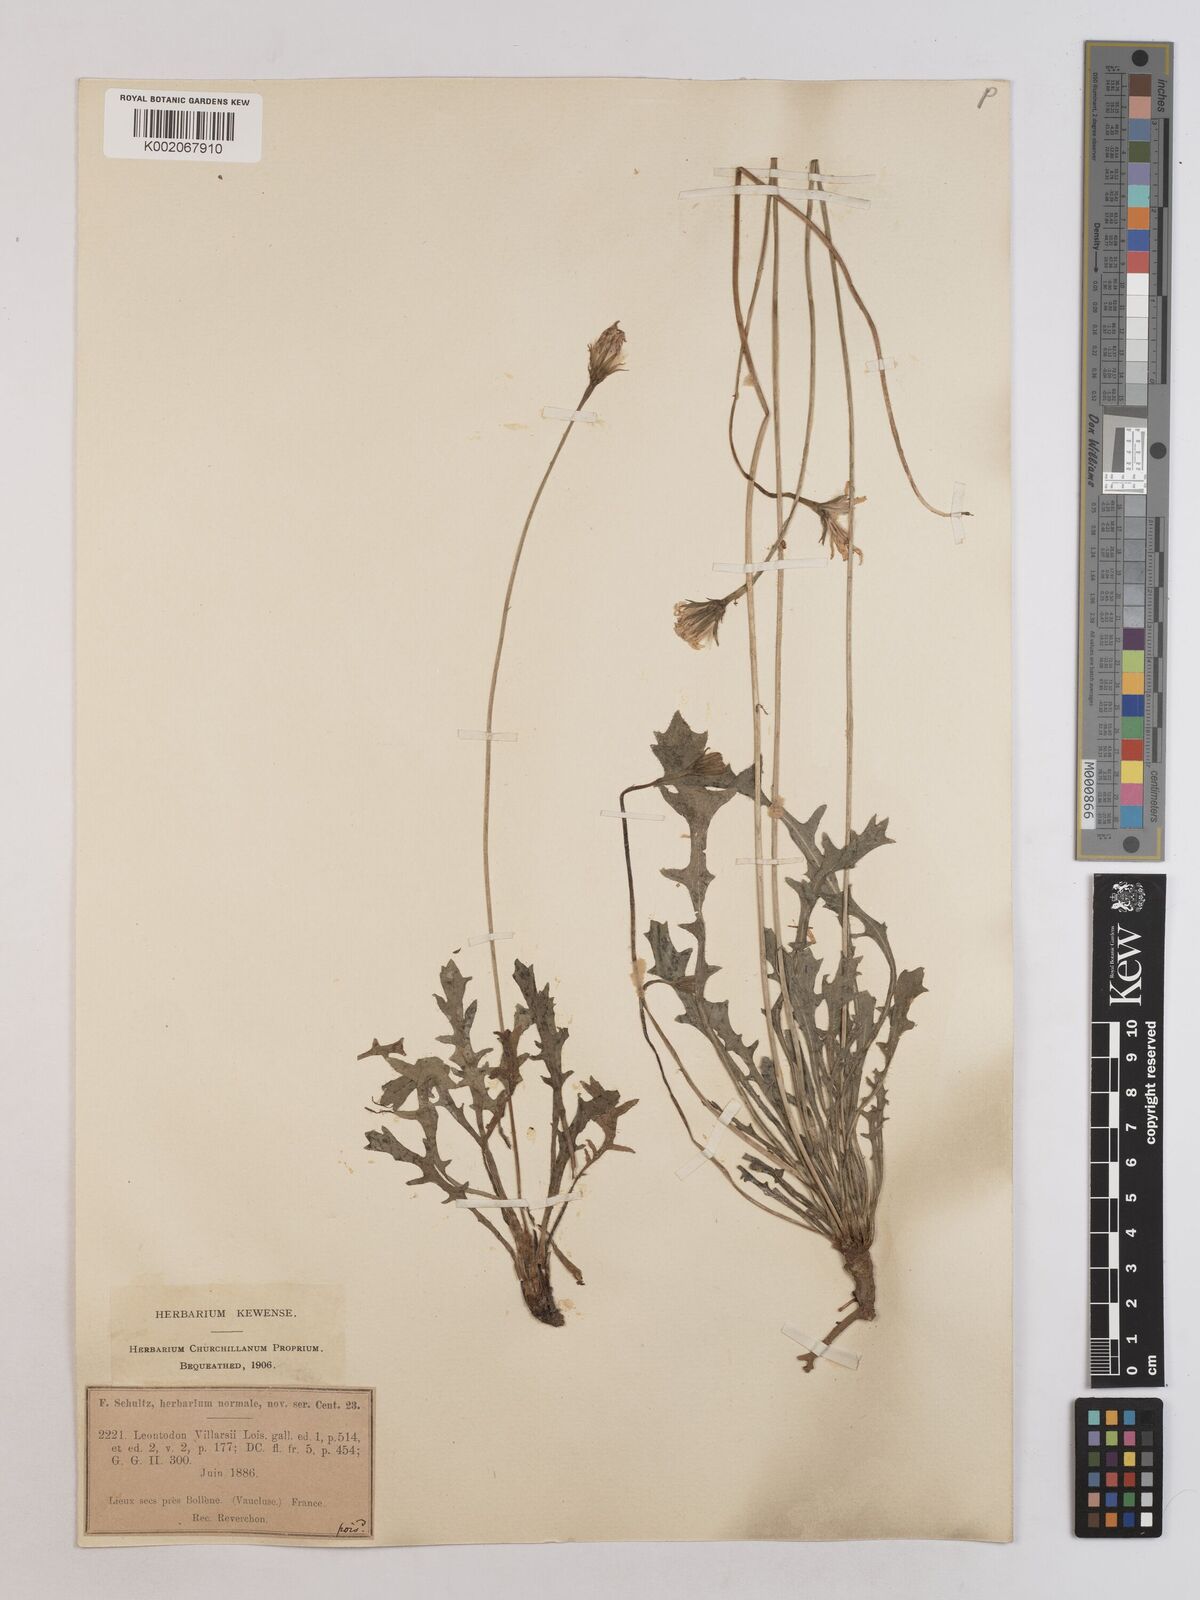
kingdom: Plantae
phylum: Tracheophyta
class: Magnoliopsida
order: Asterales
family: Asteraceae
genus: Leontodon
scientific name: Leontodon hirtus
